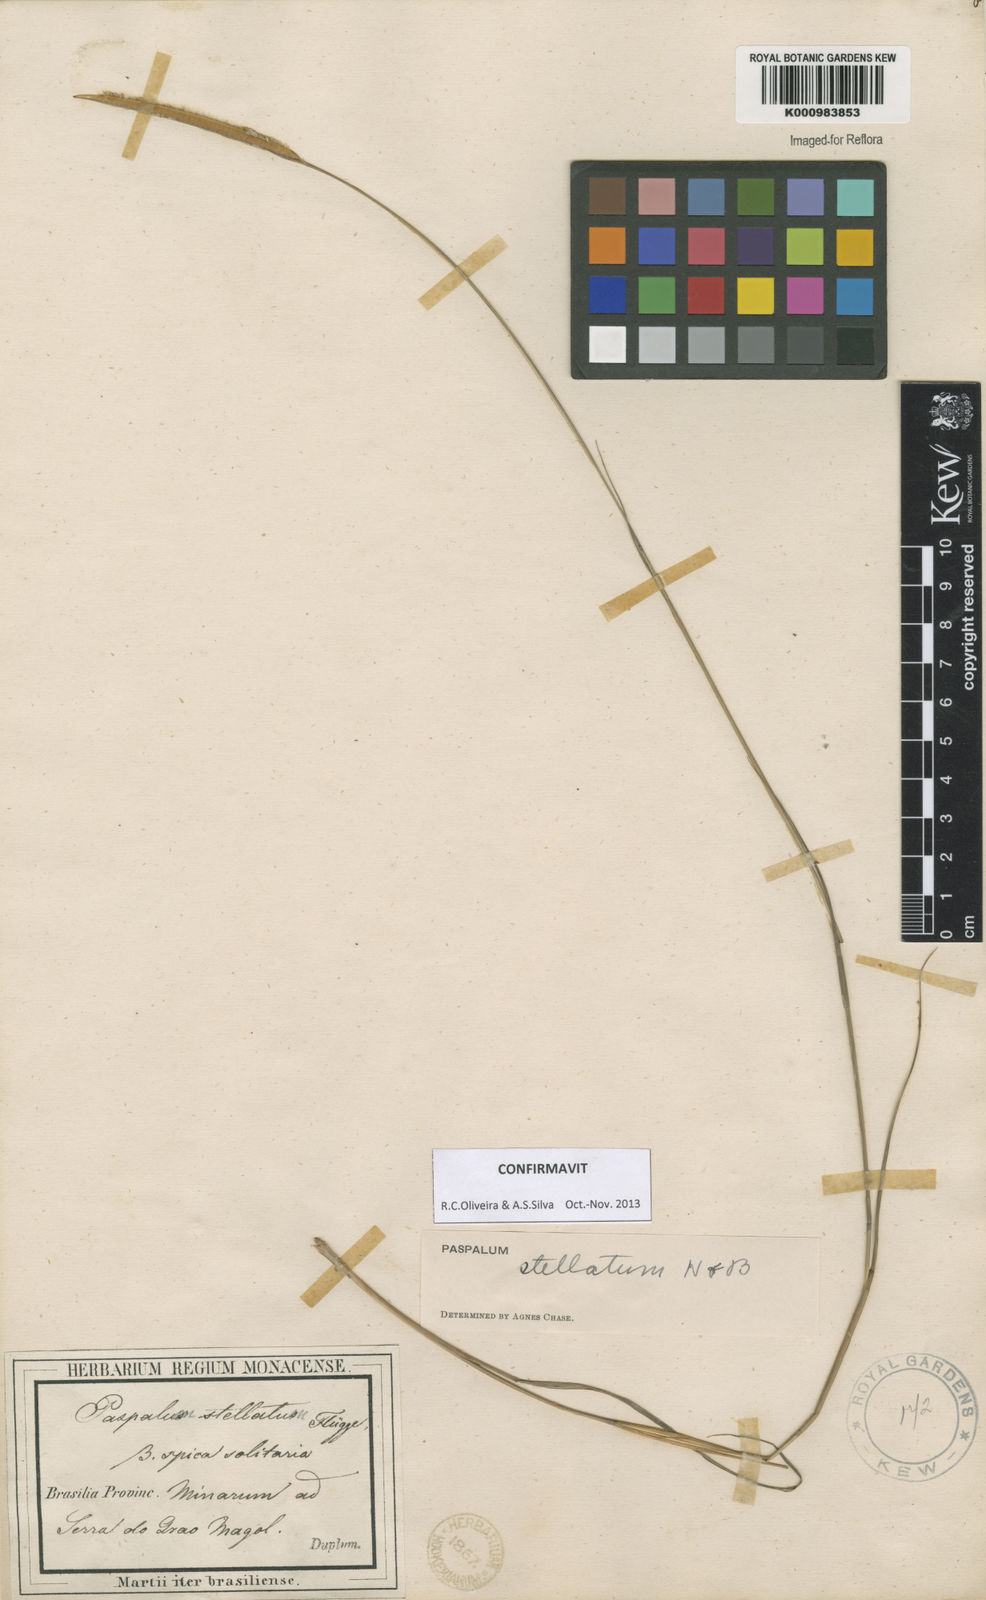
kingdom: Plantae
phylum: Tracheophyta
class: Liliopsida
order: Poales
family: Poaceae
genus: Paspalum
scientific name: Paspalum
